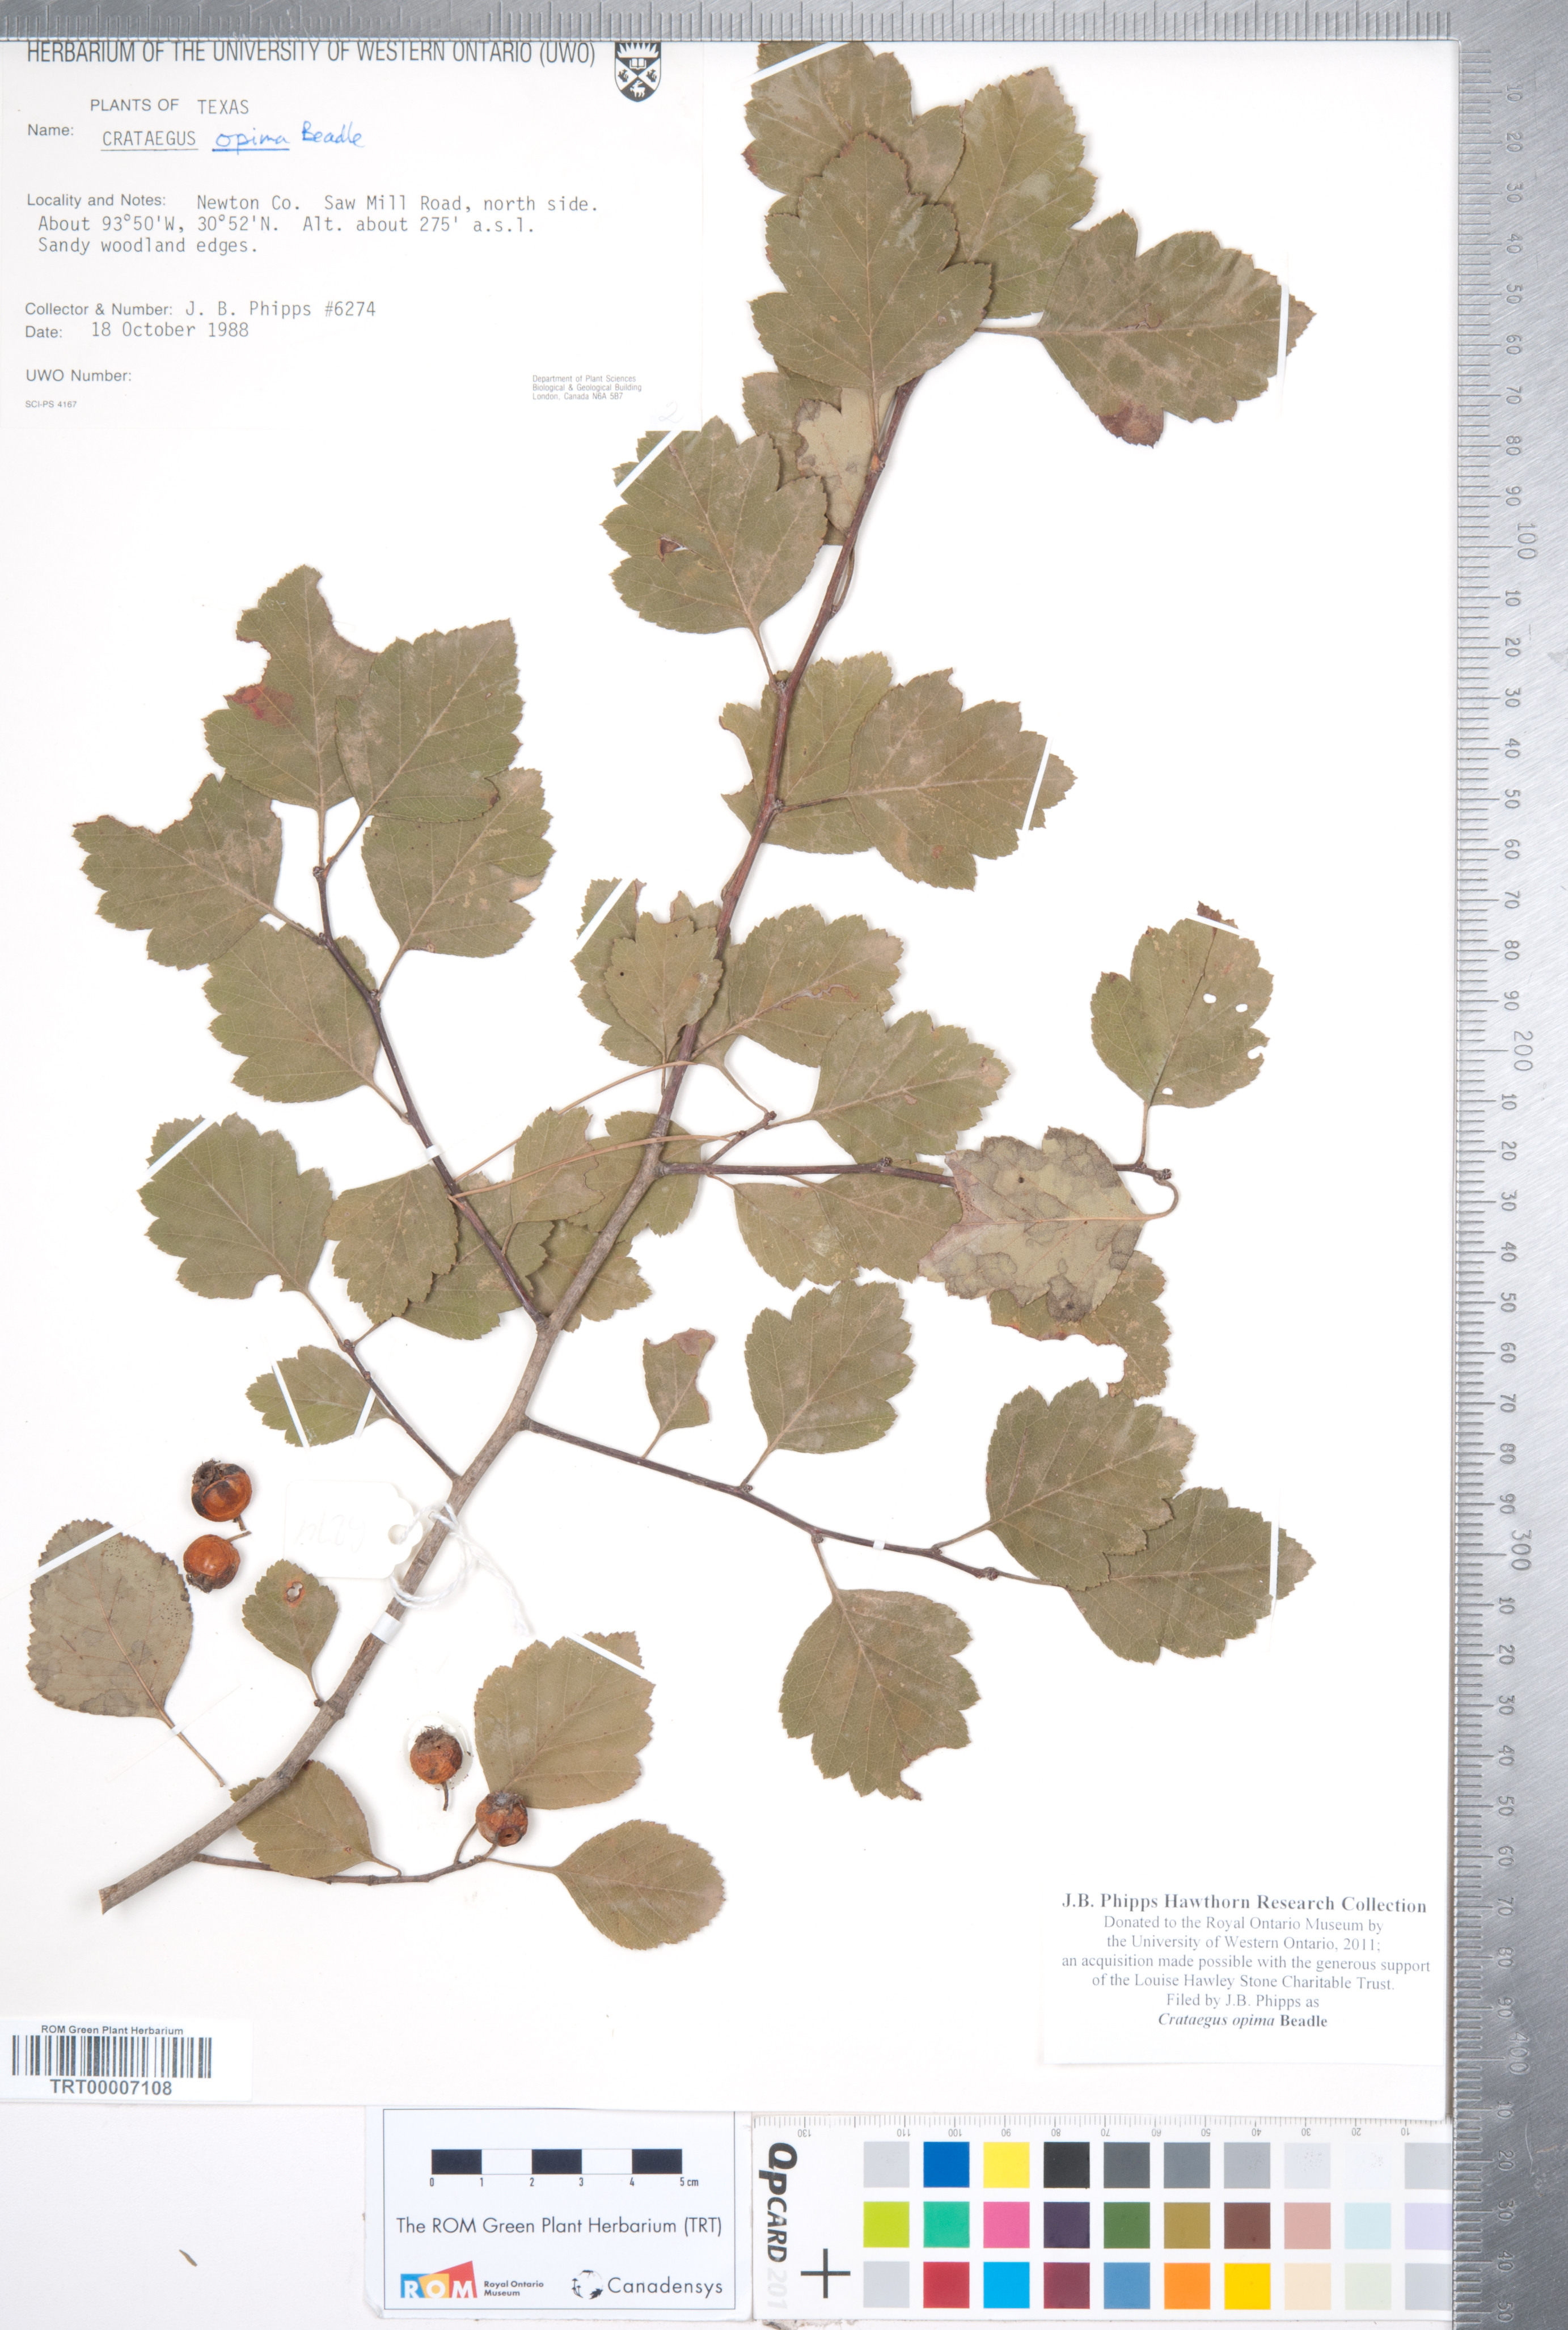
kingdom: Plantae
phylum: Tracheophyta
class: Magnoliopsida
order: Rosales
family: Rosaceae
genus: Crataegus
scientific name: Crataegus pulcherrima
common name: Beautiful hawthorn
